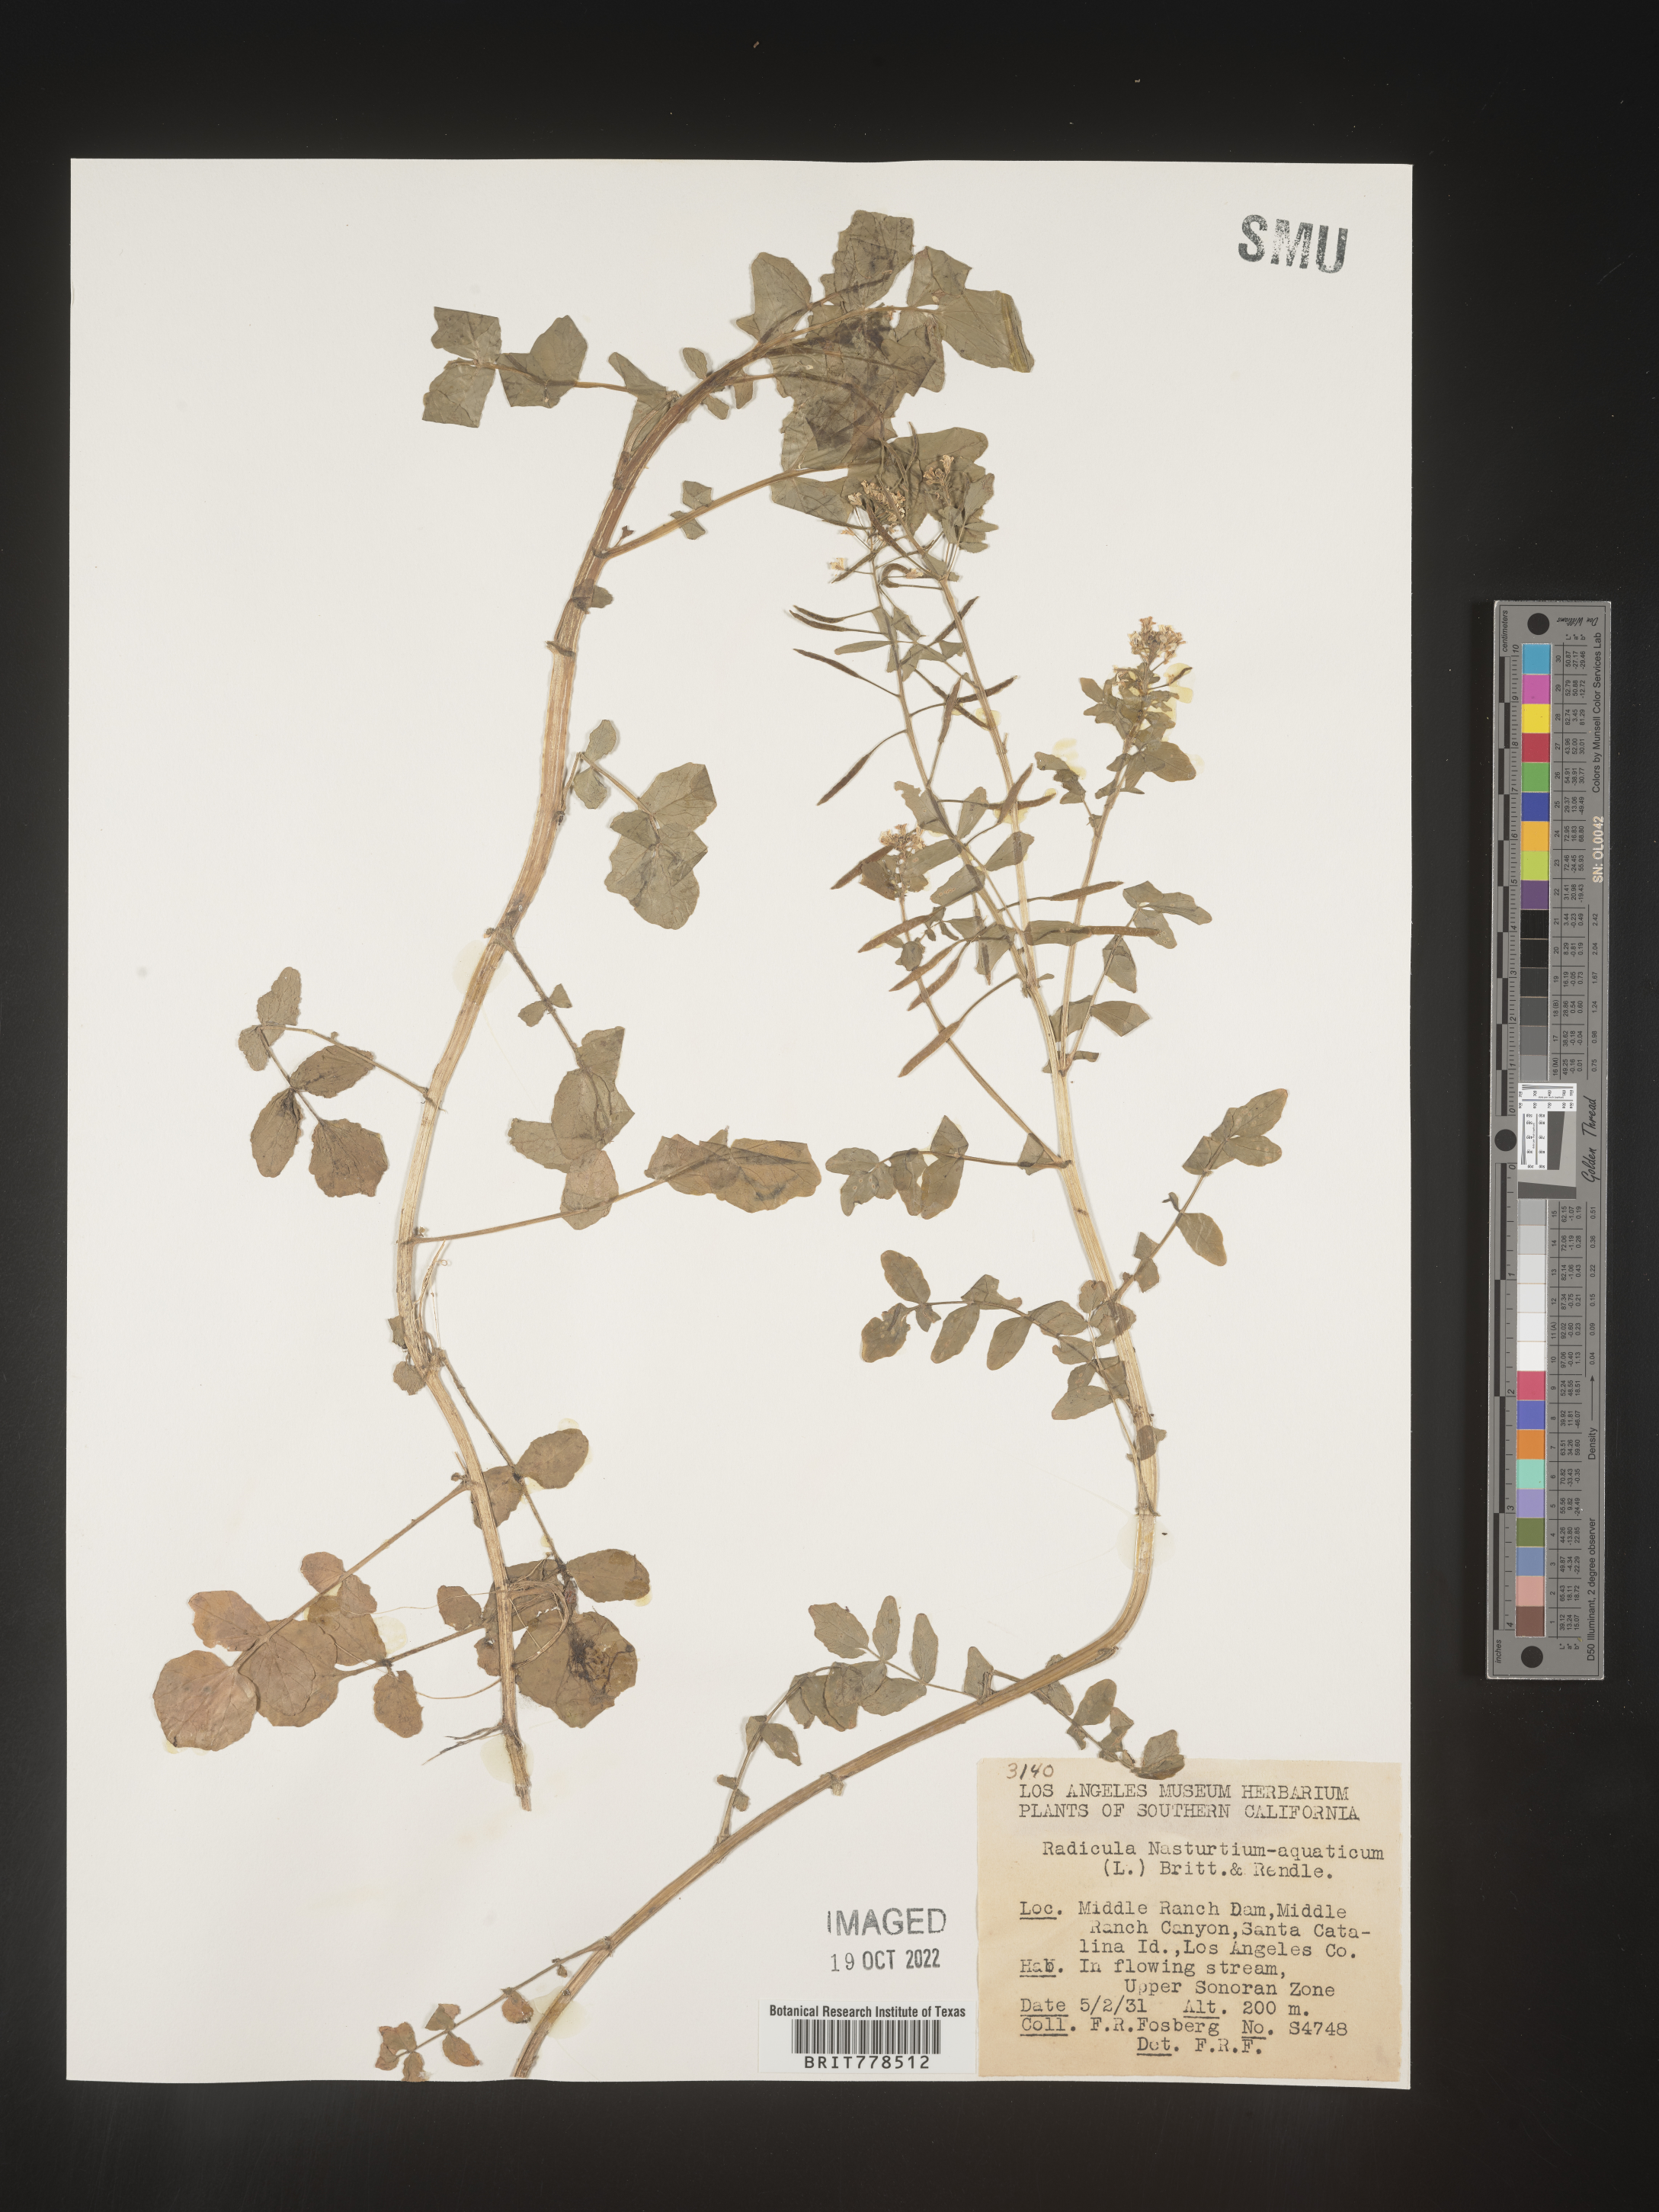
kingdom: Plantae
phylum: Tracheophyta
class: Magnoliopsida
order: Brassicales
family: Brassicaceae
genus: Nasturtium
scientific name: Nasturtium officinale
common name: Watercress
